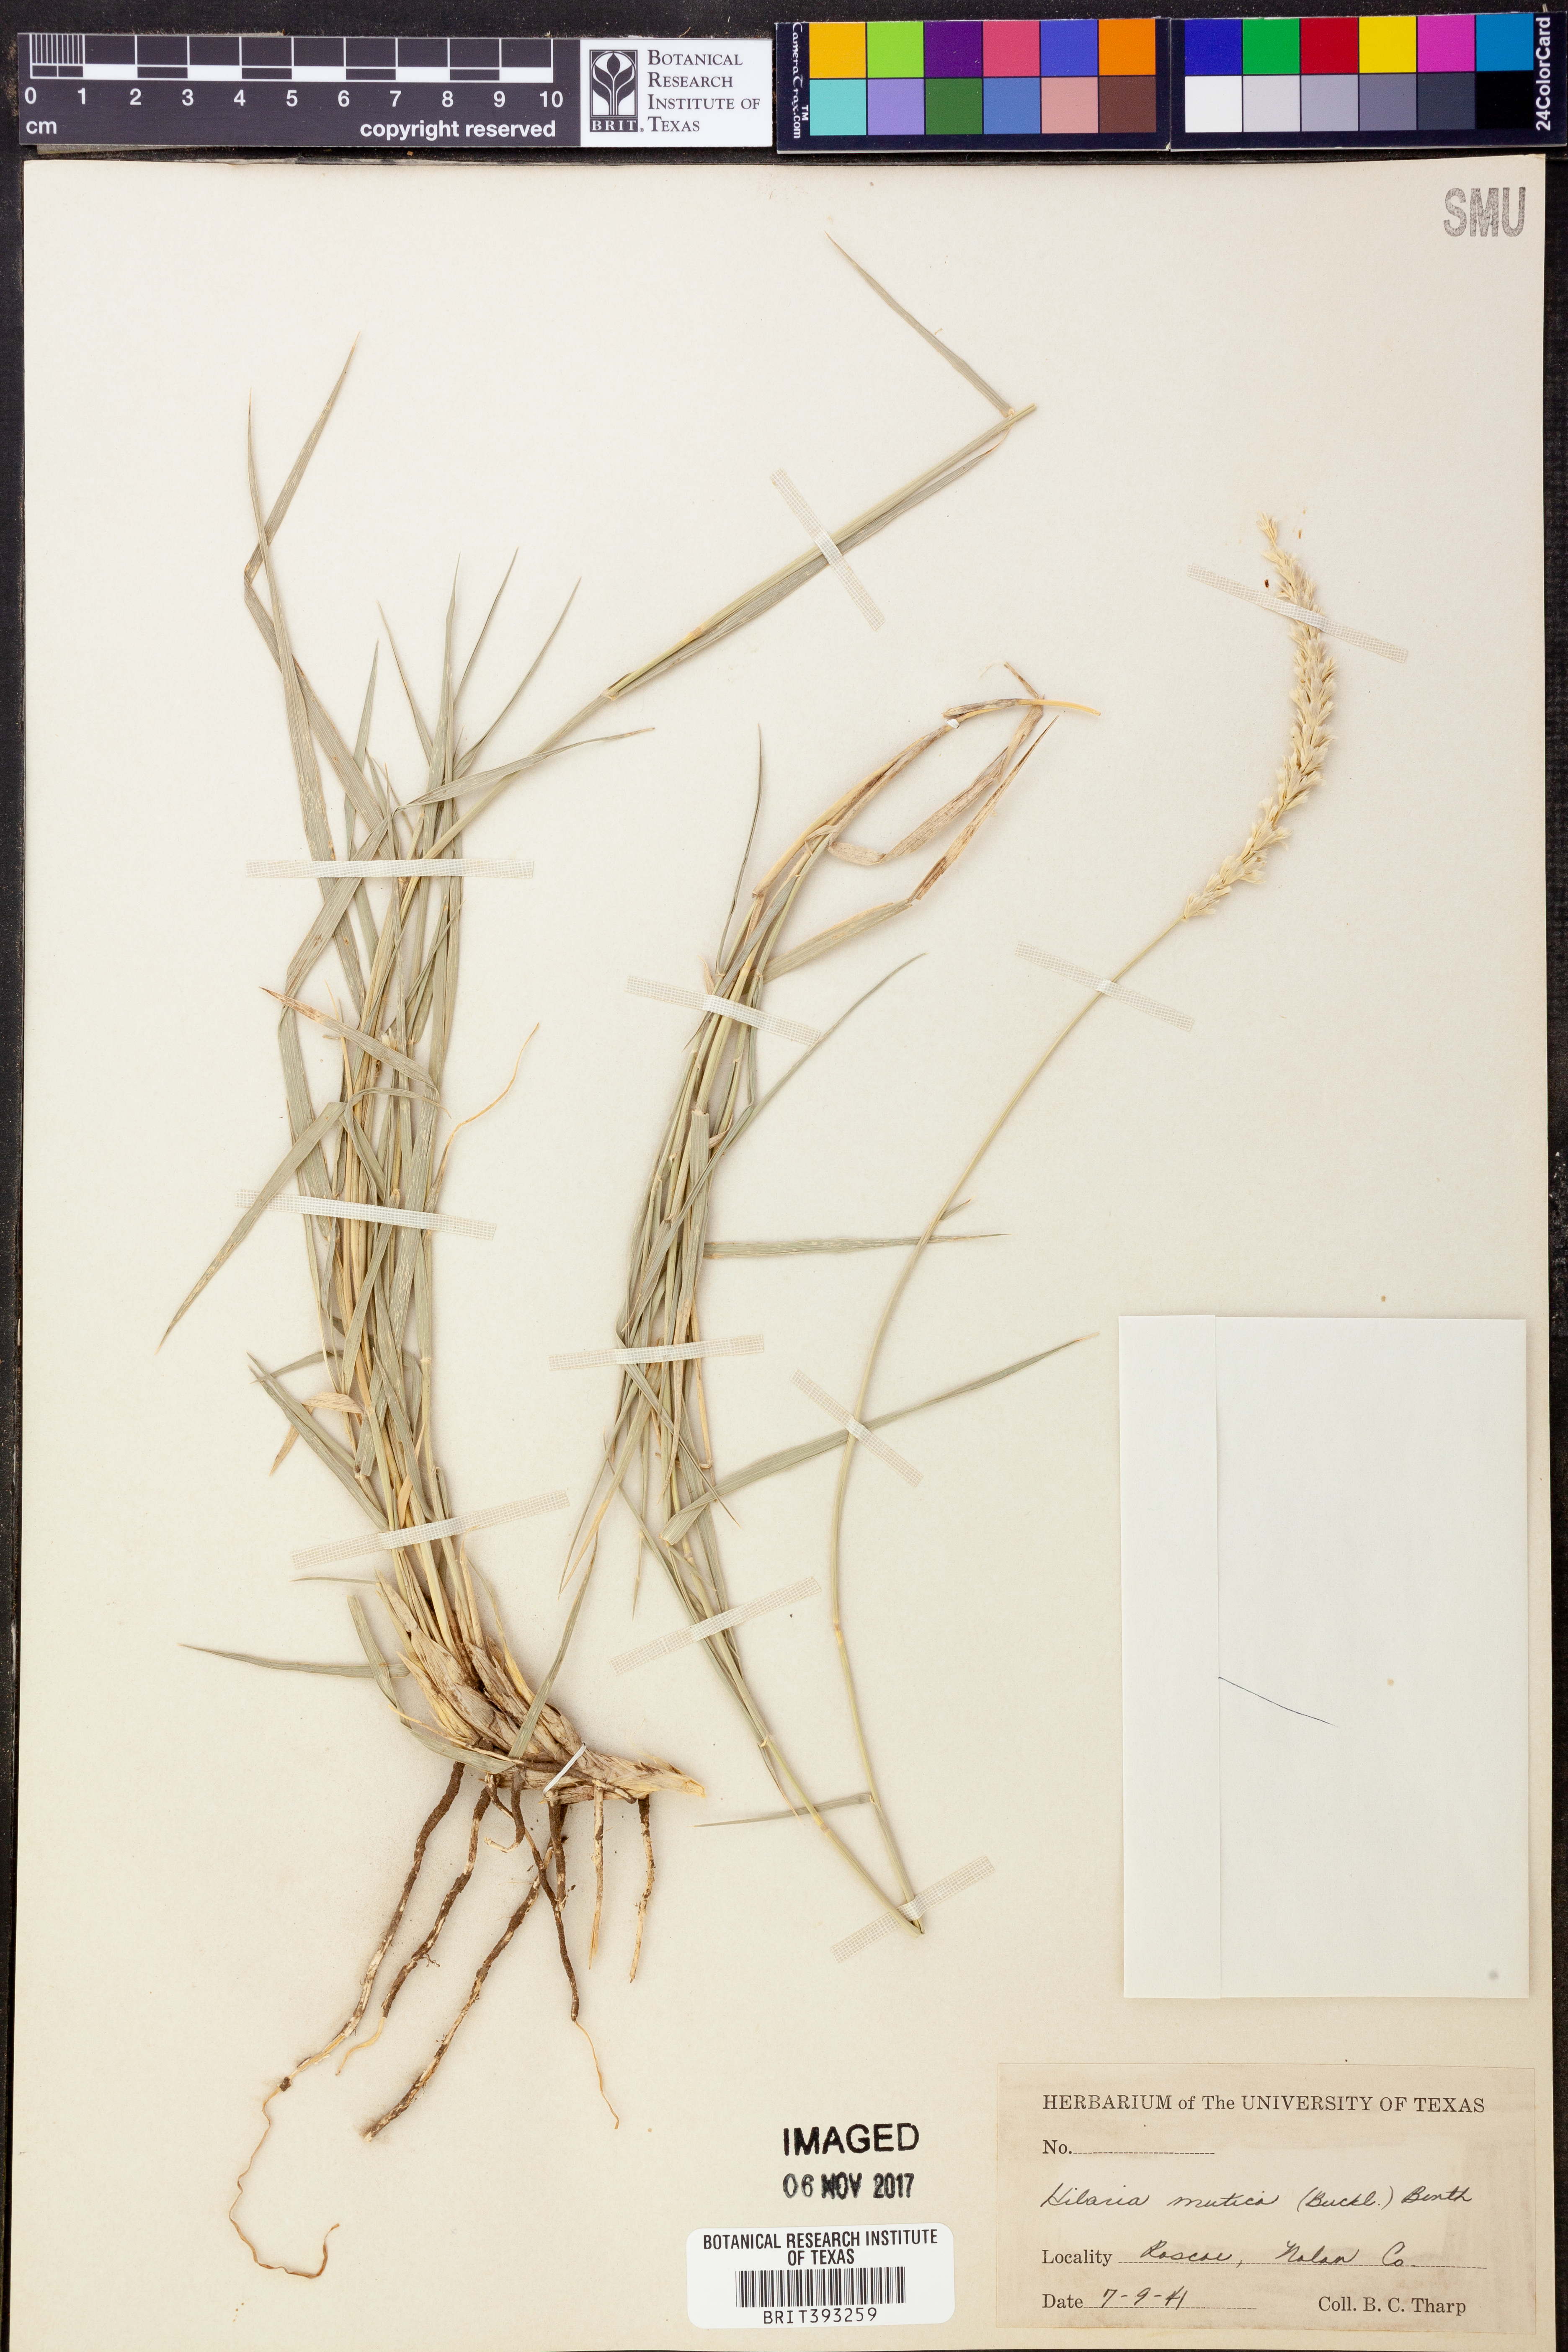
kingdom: Plantae
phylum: Tracheophyta
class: Liliopsida
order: Poales
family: Poaceae
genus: Hilaria
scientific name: Hilaria mutica
